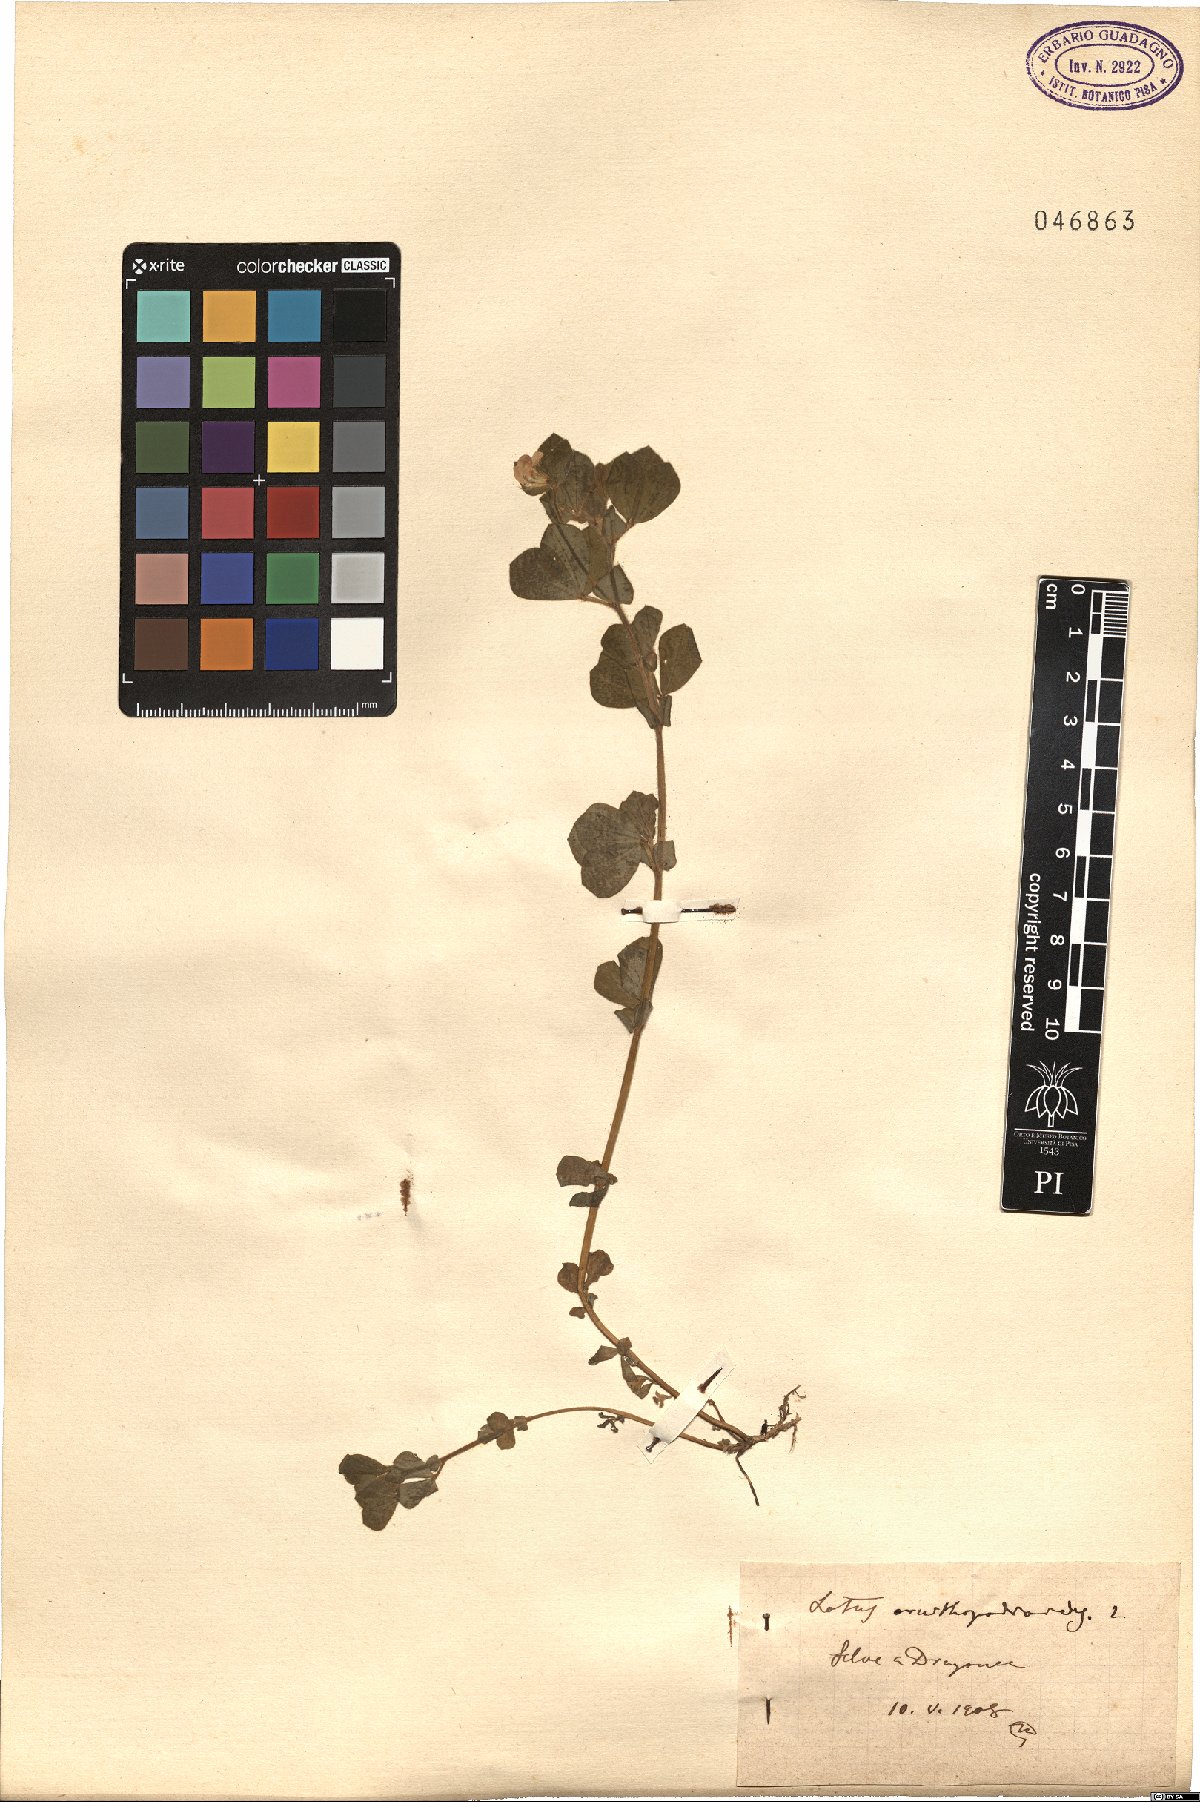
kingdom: Plantae
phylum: Tracheophyta
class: Magnoliopsida
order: Fabales
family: Fabaceae
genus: Lotus
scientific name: Lotus ornithopodioides
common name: Southern bird's-foot trefoil
